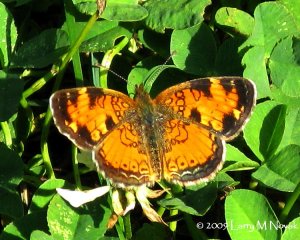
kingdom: Animalia
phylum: Arthropoda
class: Insecta
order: Lepidoptera
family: Nymphalidae
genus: Phyciodes
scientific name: Phyciodes tharos
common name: Northern Crescent
